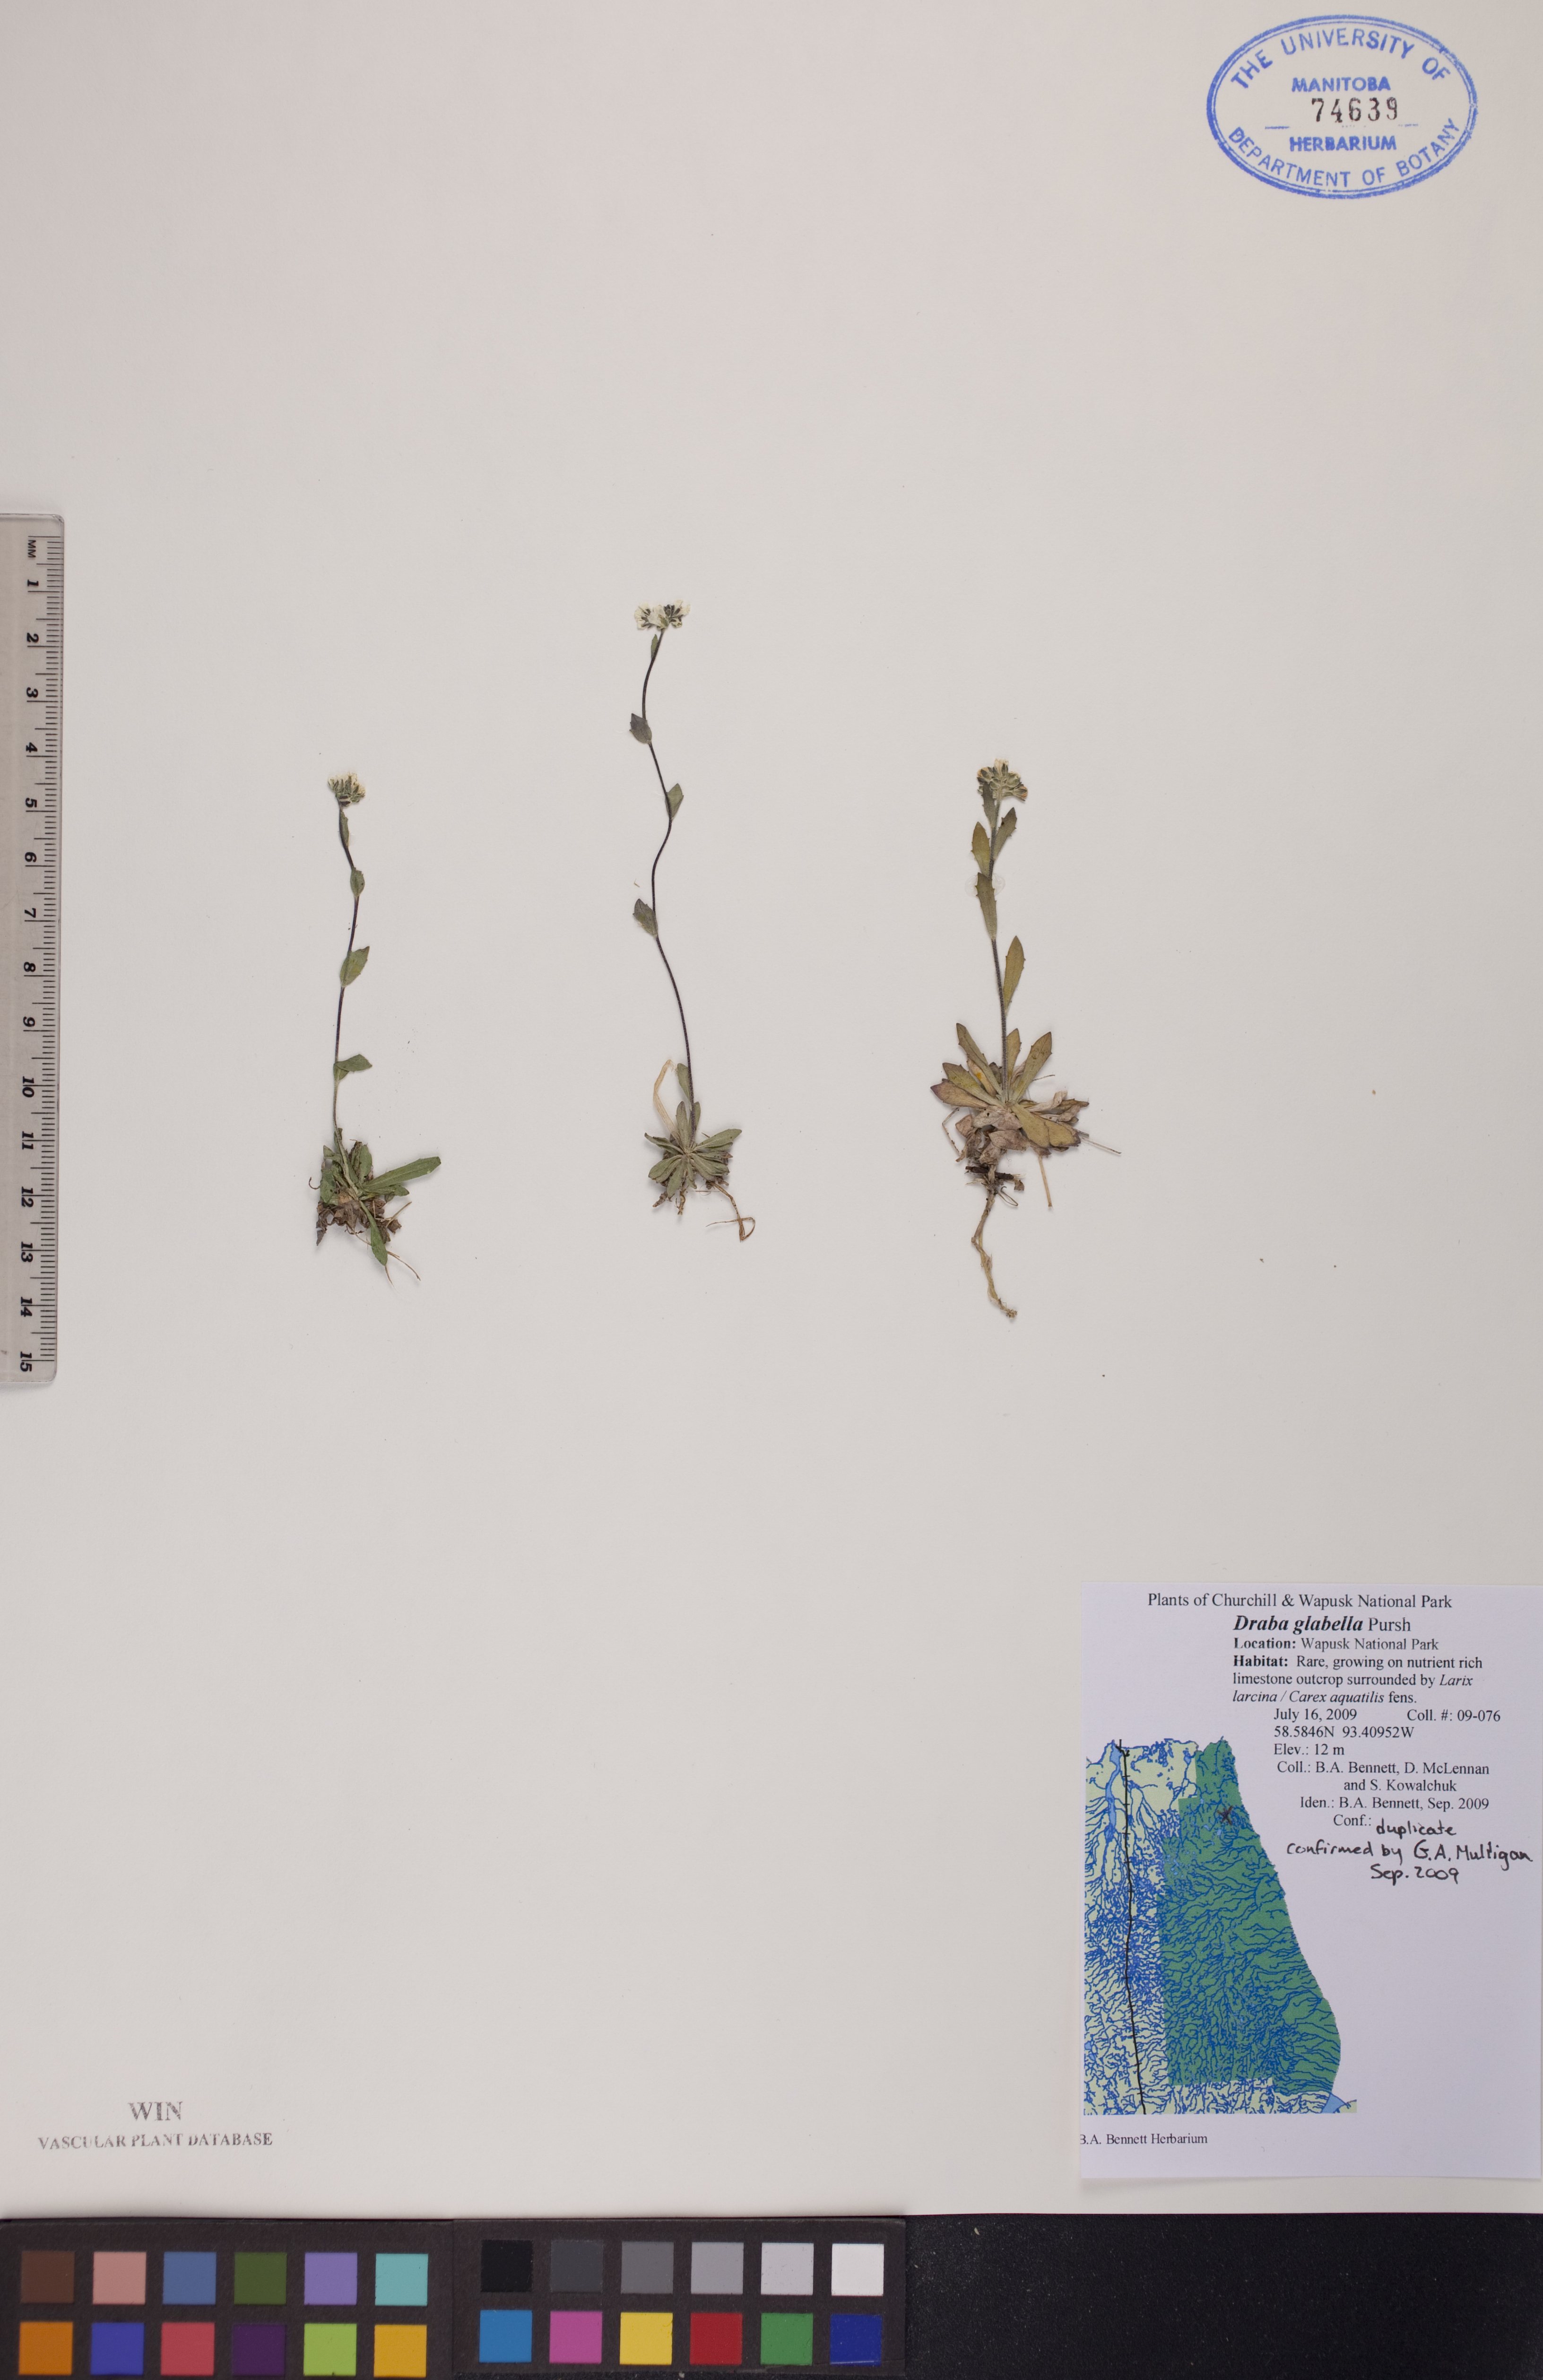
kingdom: Plantae
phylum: Tracheophyta
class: Magnoliopsida
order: Brassicales
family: Brassicaceae
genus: Draba
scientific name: Draba glabella
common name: Glaucous draba
